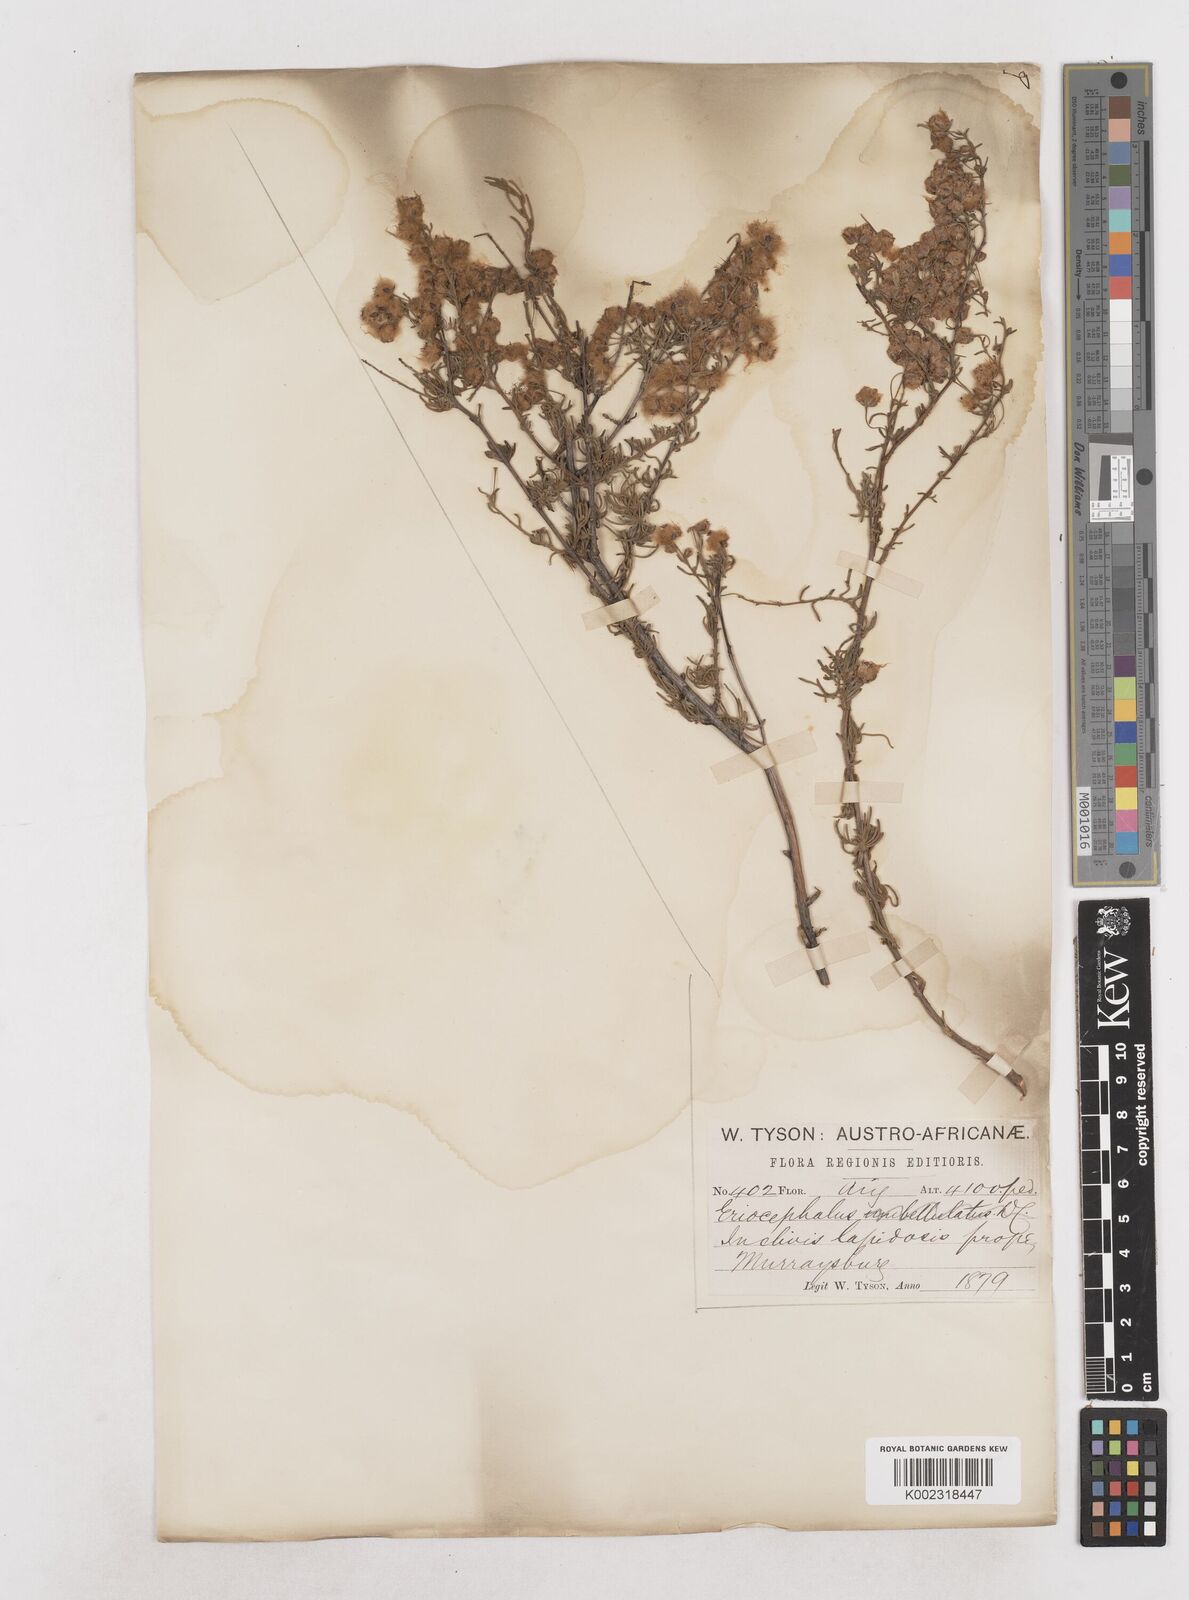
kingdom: Plantae
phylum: Tracheophyta
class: Magnoliopsida
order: Asterales
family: Asteraceae
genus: Eriocephalus
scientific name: Eriocephalus
